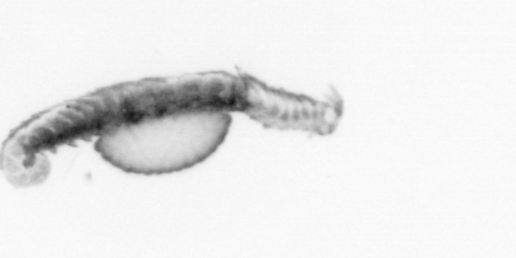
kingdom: Animalia
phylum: Annelida
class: Polychaeta
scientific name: Polychaeta
